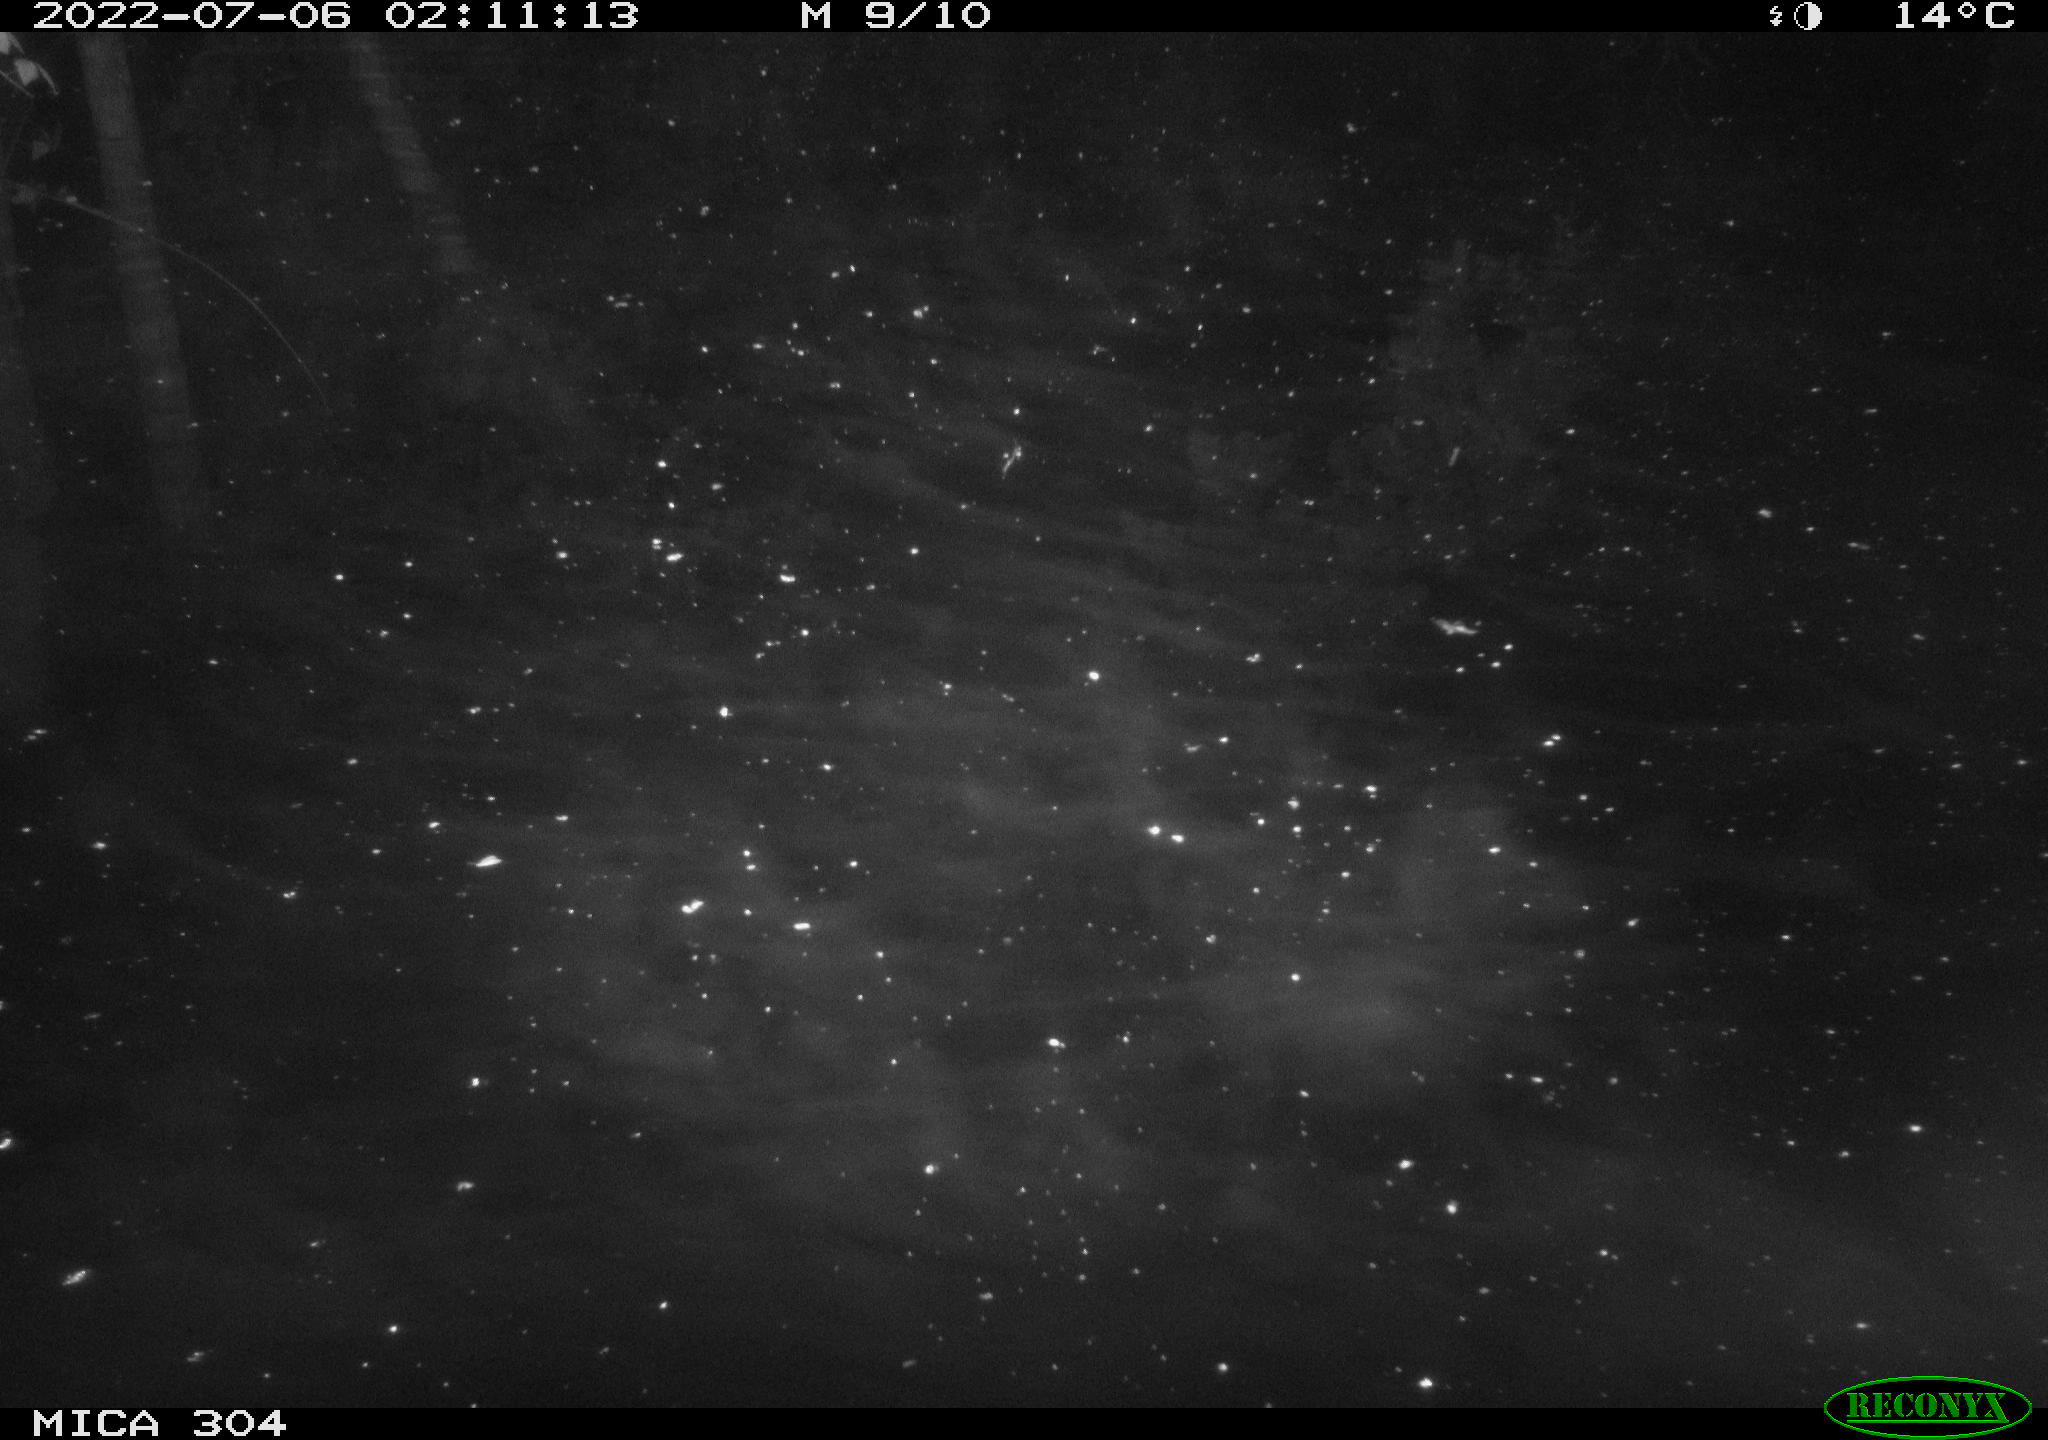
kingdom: Animalia
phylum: Chordata
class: Mammalia
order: Rodentia
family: Muridae
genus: Rattus
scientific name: Rattus norvegicus
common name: Brown rat
